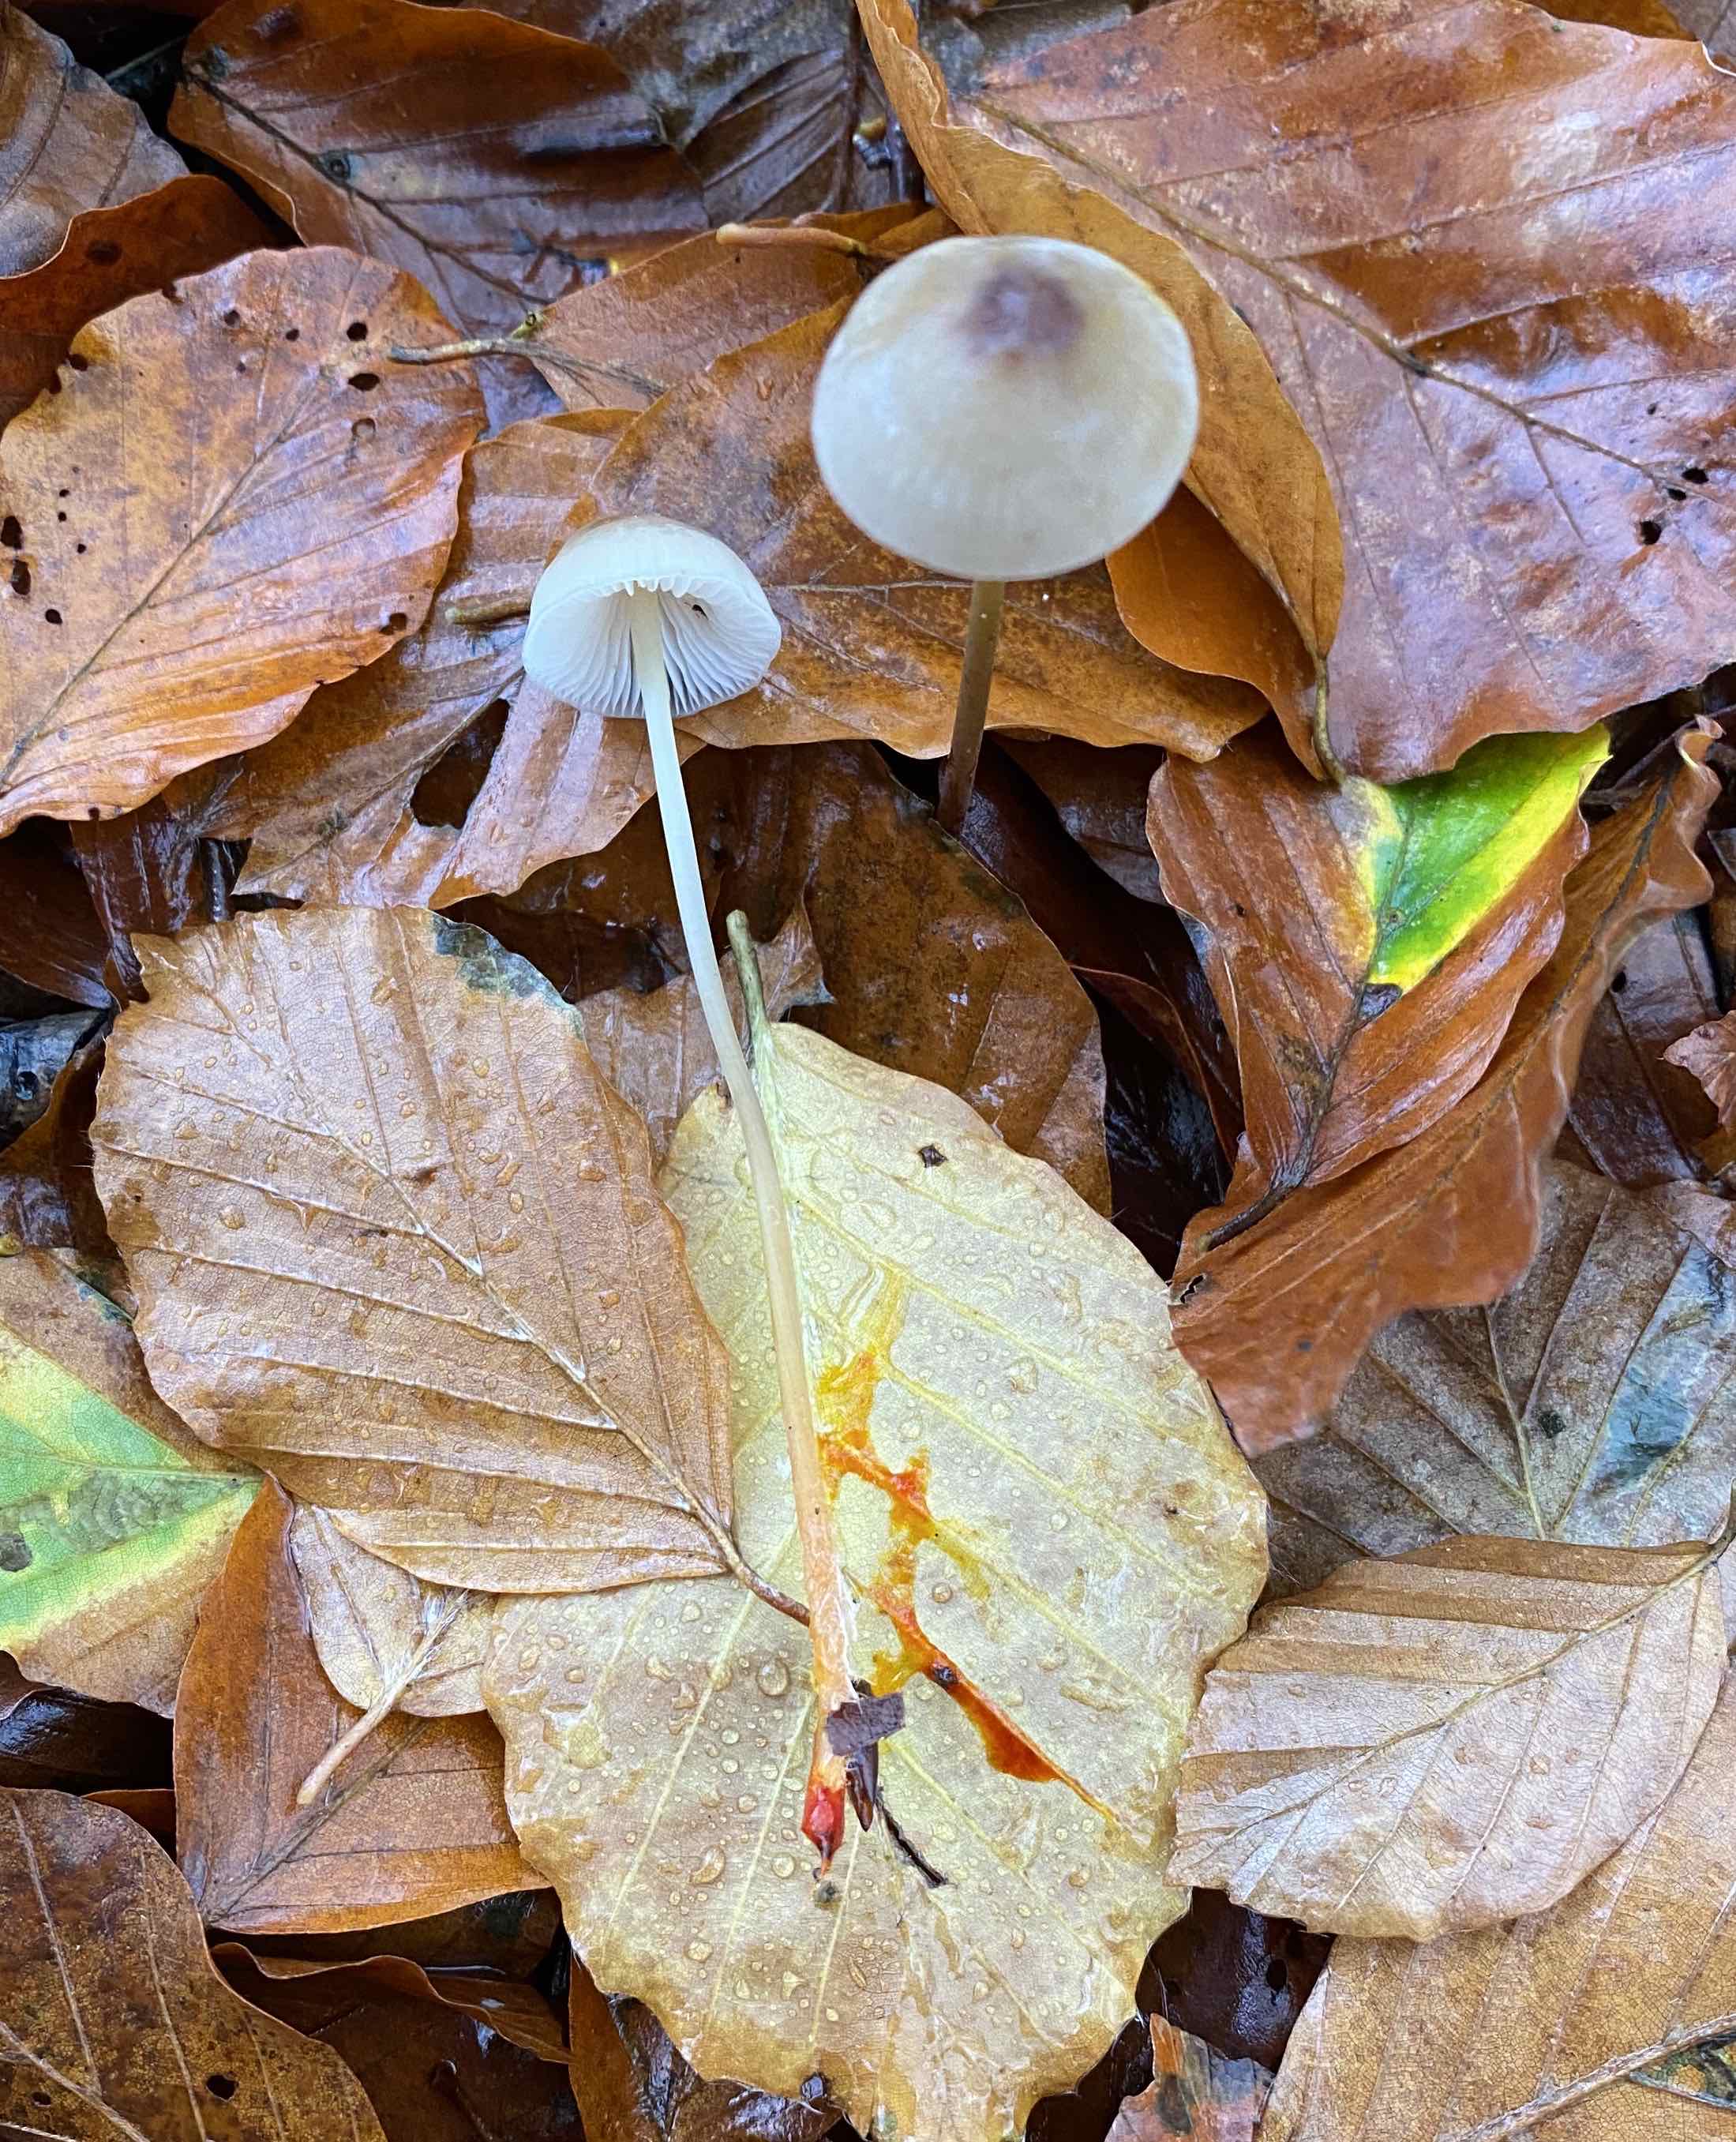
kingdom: Fungi
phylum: Basidiomycota
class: Agaricomycetes
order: Agaricales
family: Mycenaceae
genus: Mycena
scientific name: Mycena crocata
